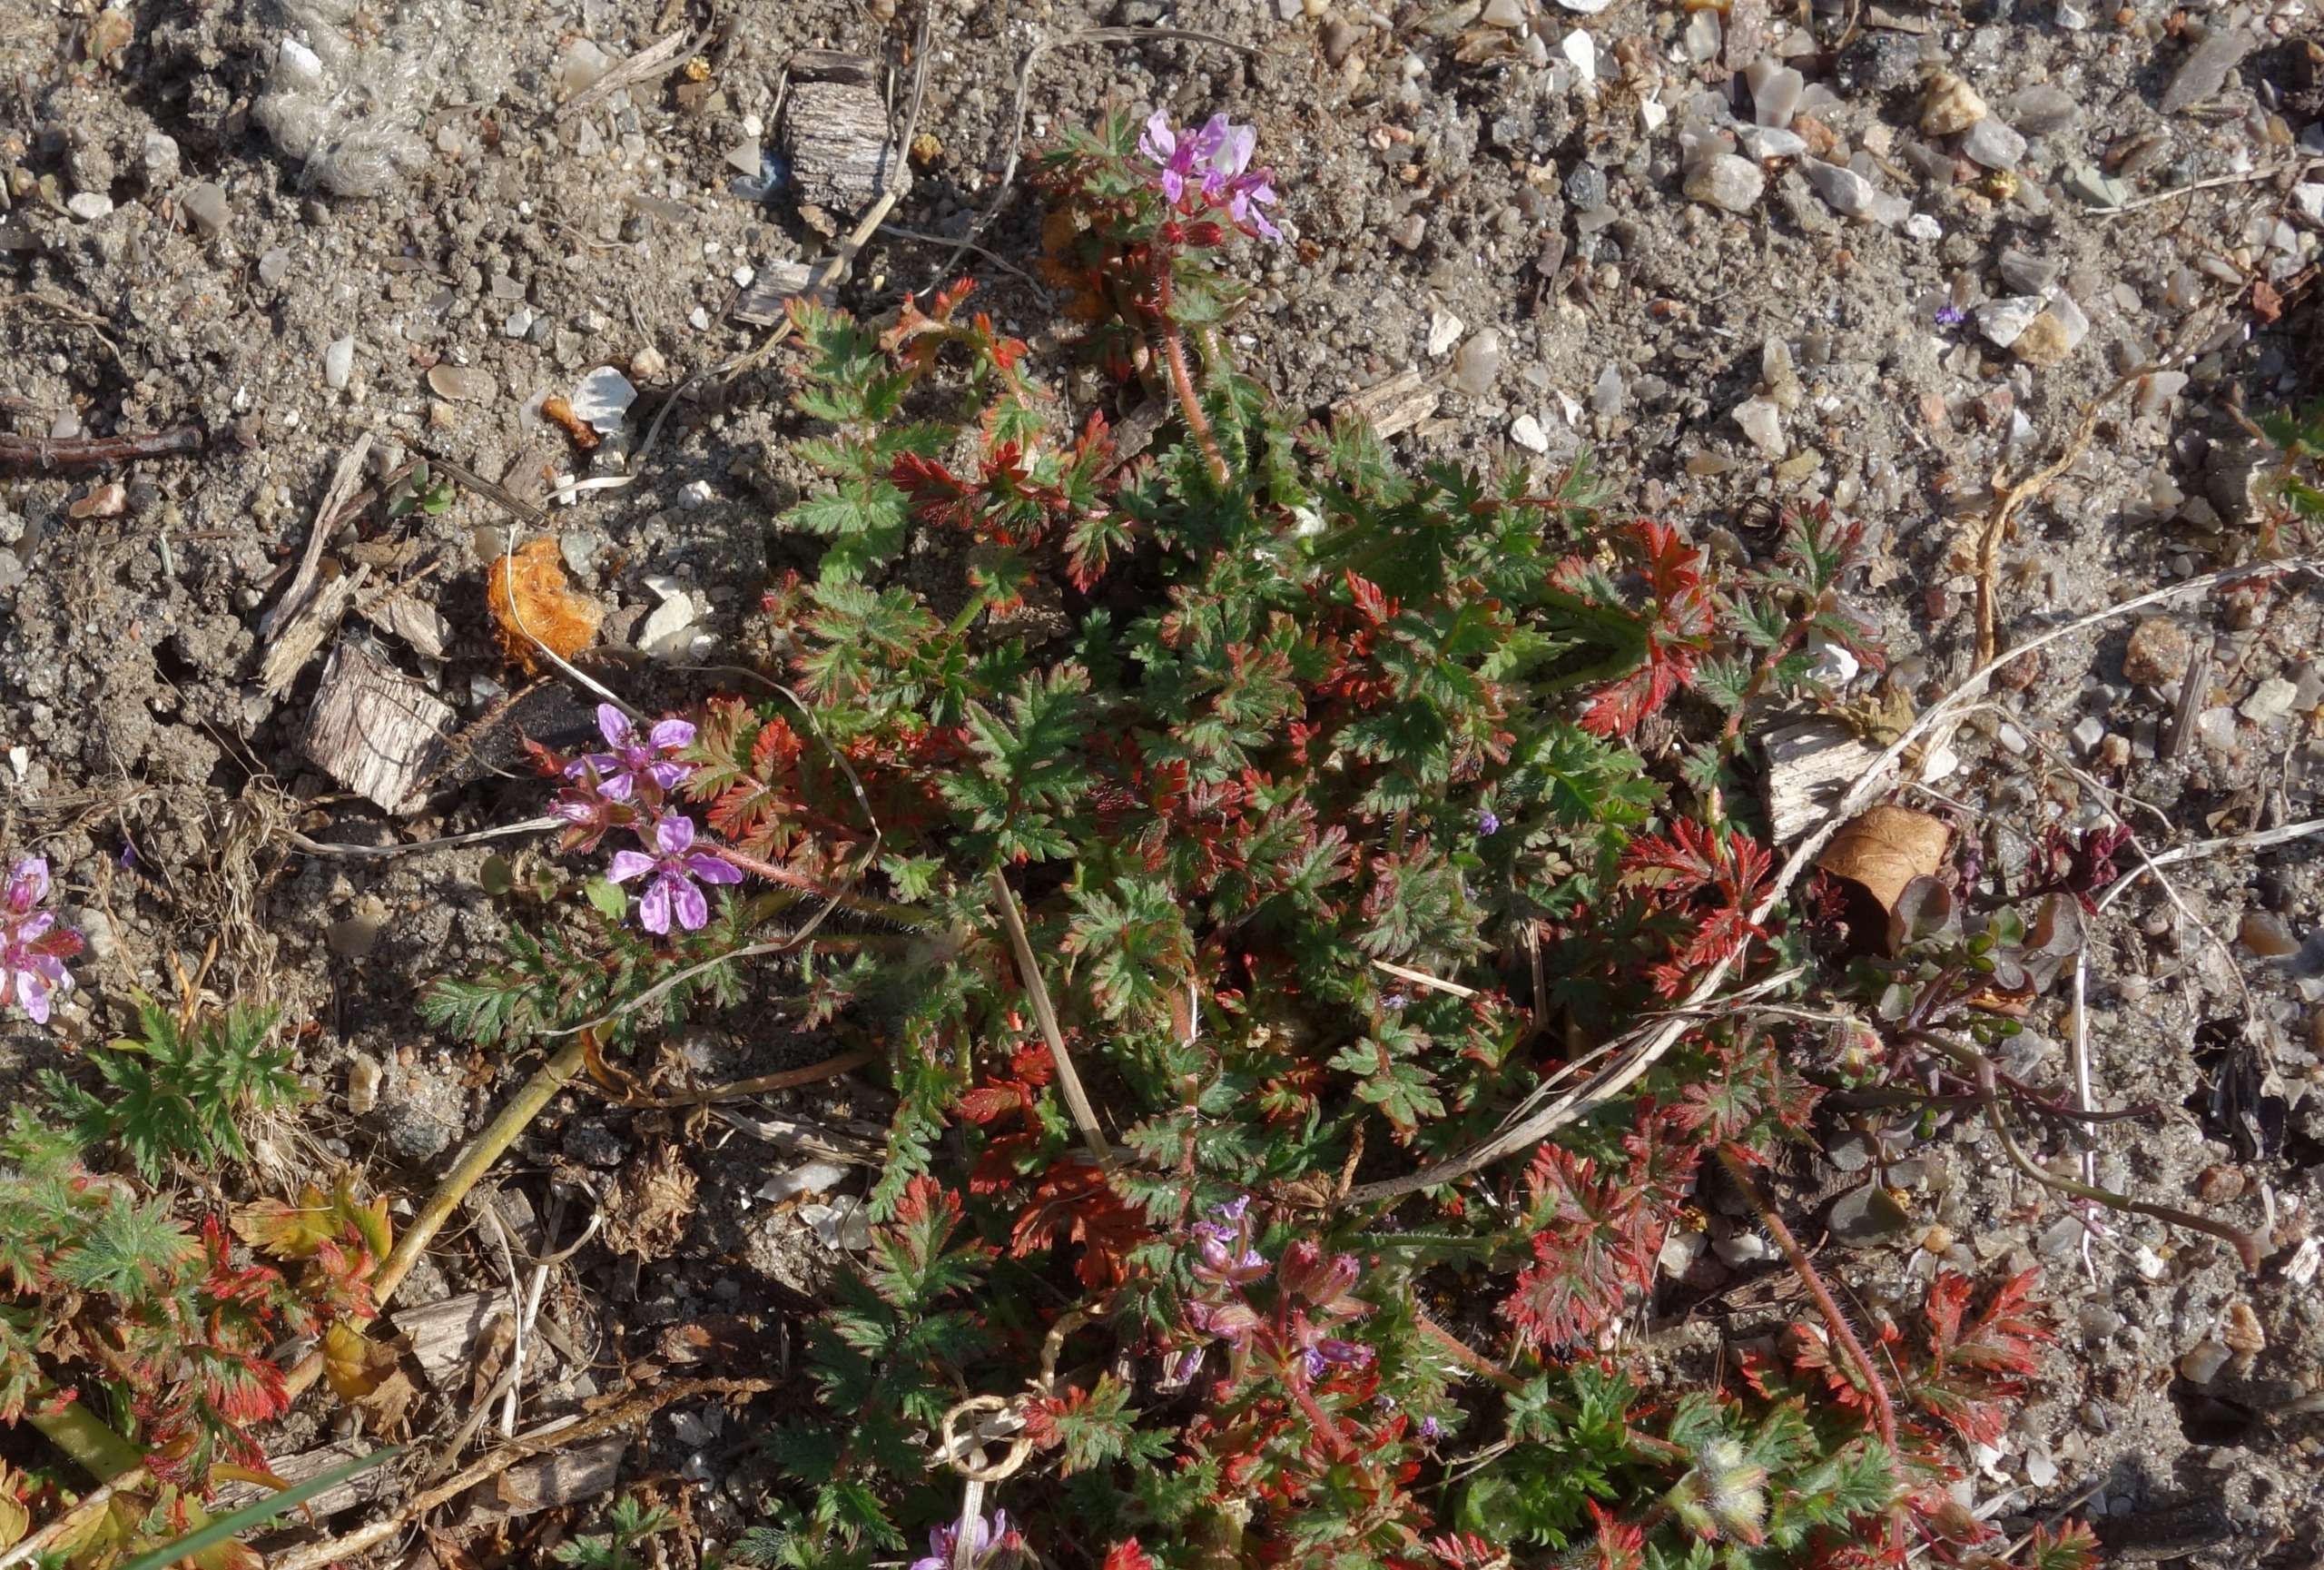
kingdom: Plantae
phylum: Tracheophyta
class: Magnoliopsida
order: Geraniales
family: Geraniaceae
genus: Erodium
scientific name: Erodium cicutarium
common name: Hejrenæb
